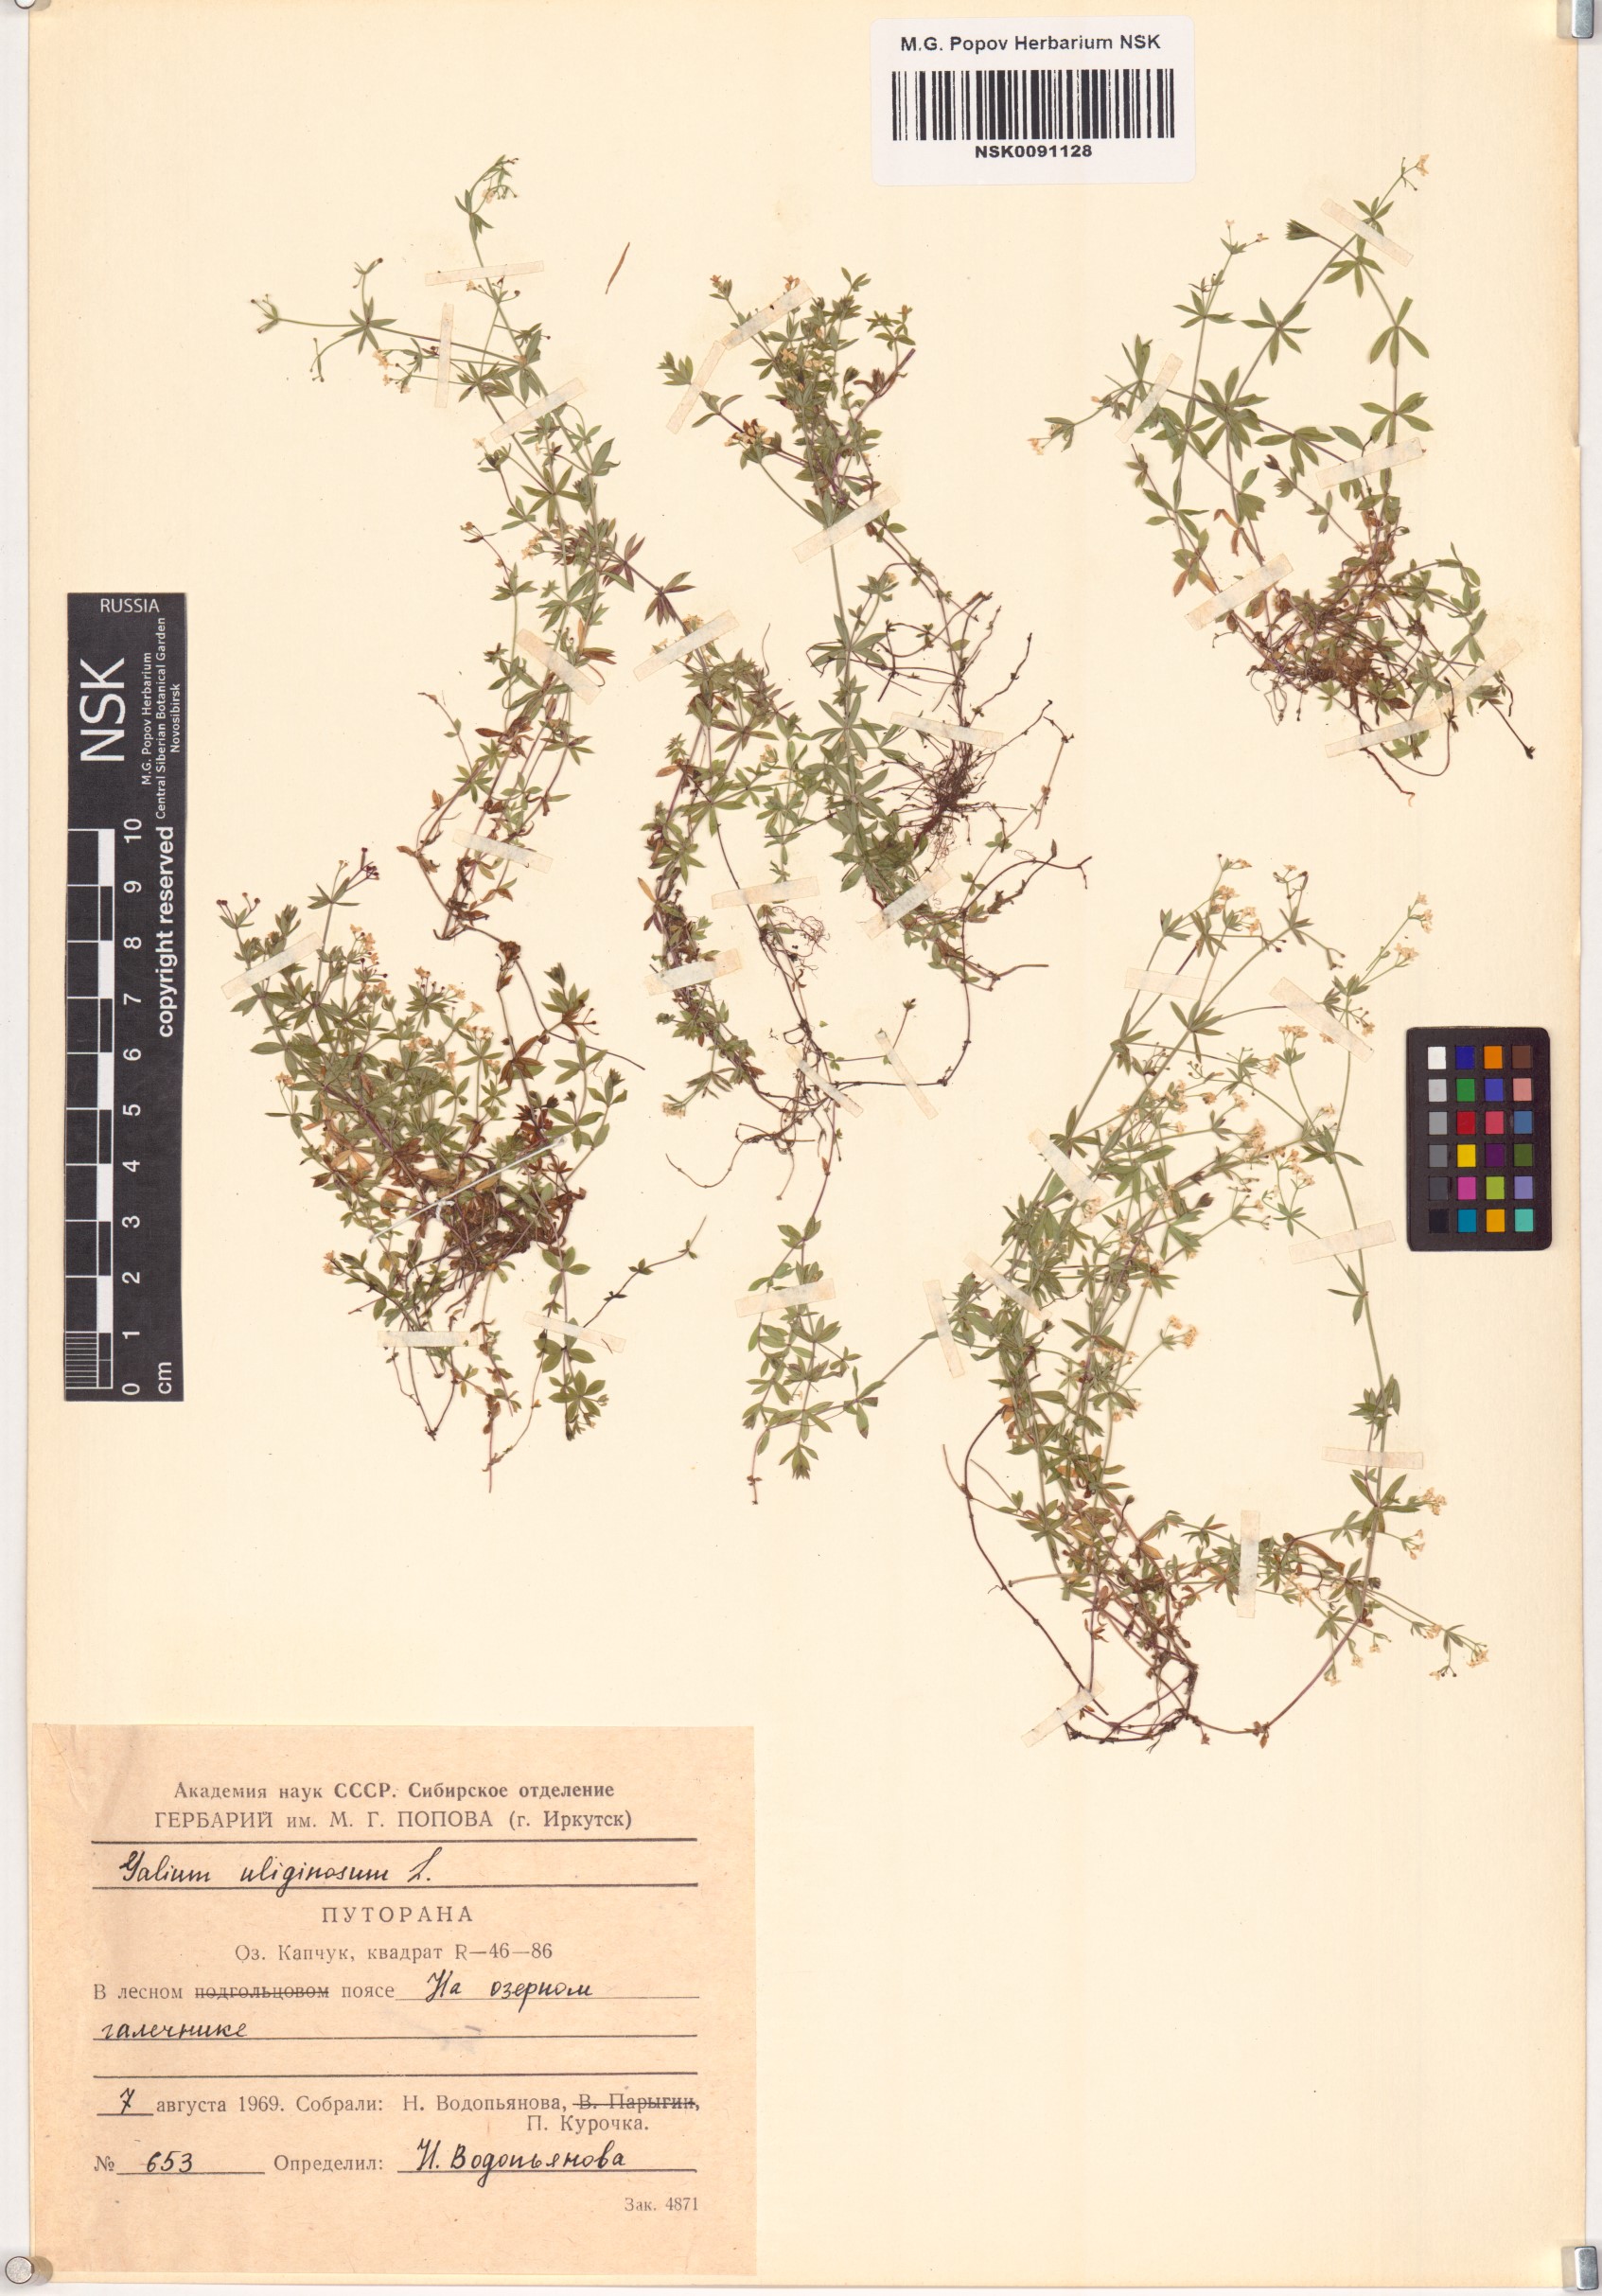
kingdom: Plantae
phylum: Tracheophyta
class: Magnoliopsida
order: Gentianales
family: Rubiaceae
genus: Galium
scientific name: Galium uliginosum
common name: Fen bedstraw
